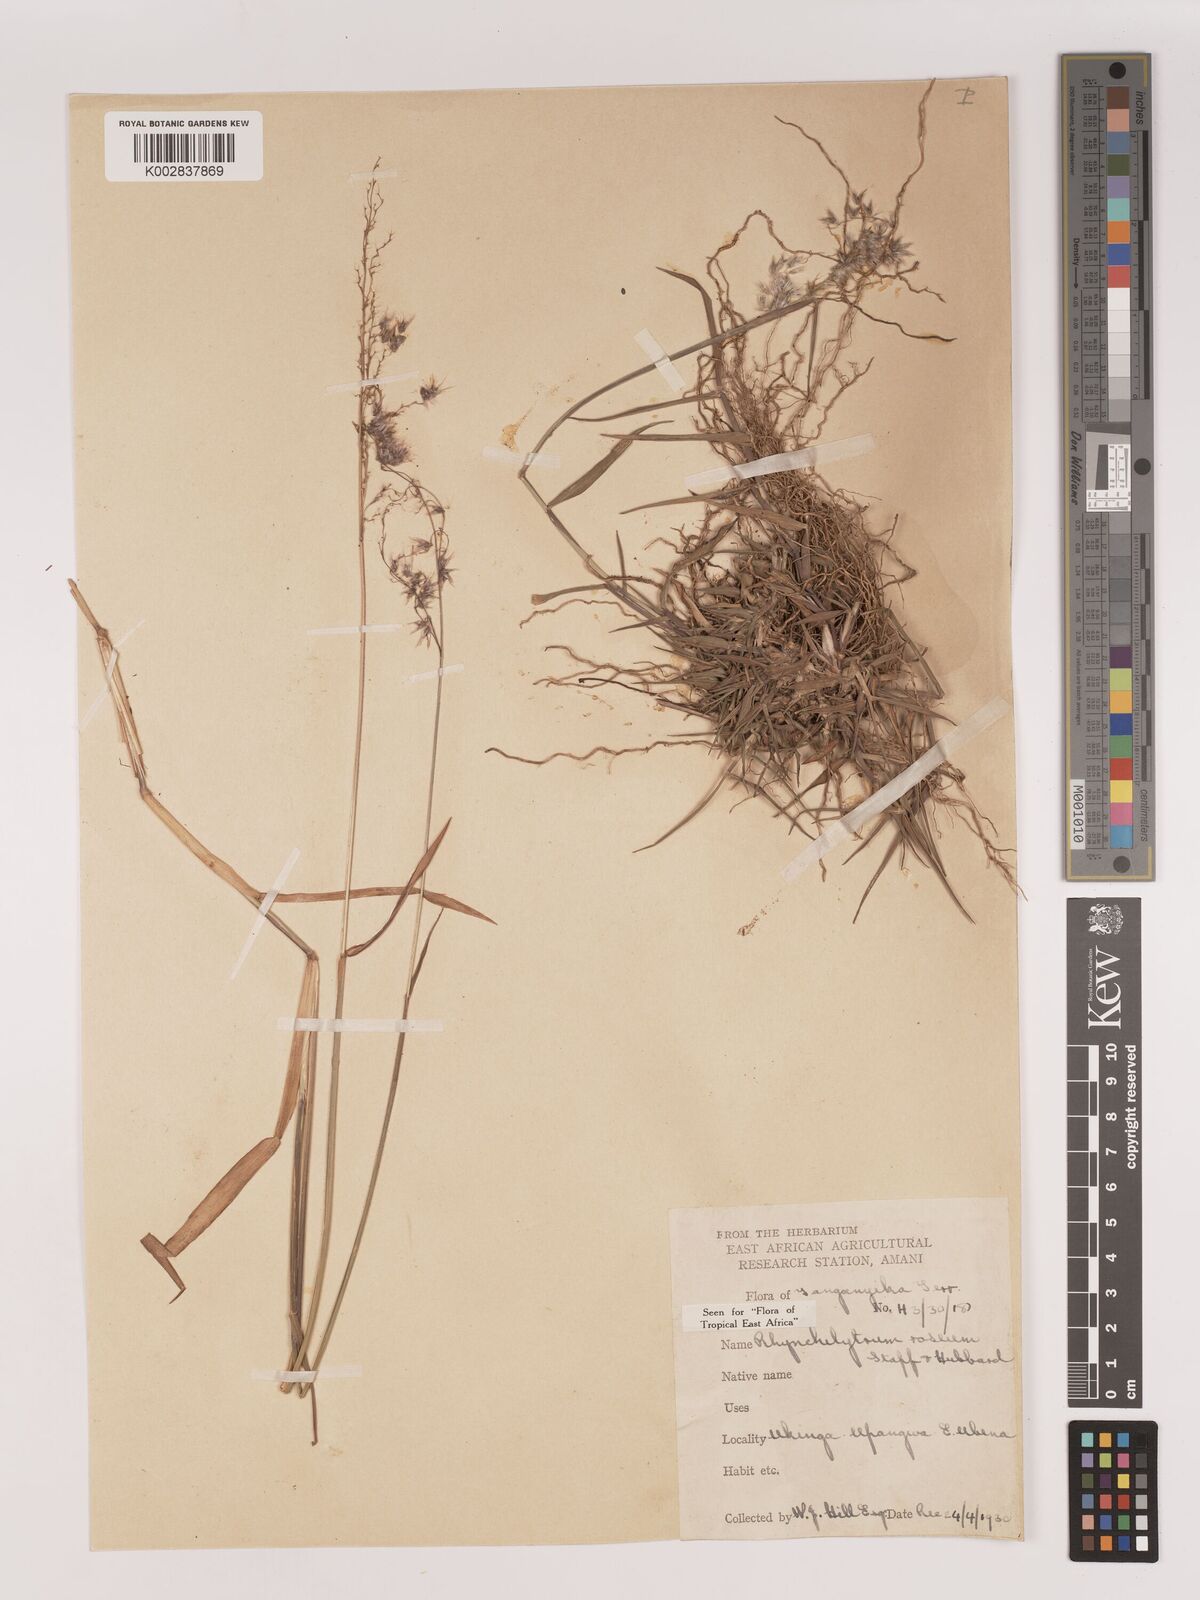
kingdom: Plantae
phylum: Tracheophyta
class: Liliopsida
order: Poales
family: Poaceae
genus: Melinis
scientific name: Melinis repens
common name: Rose natal grass
